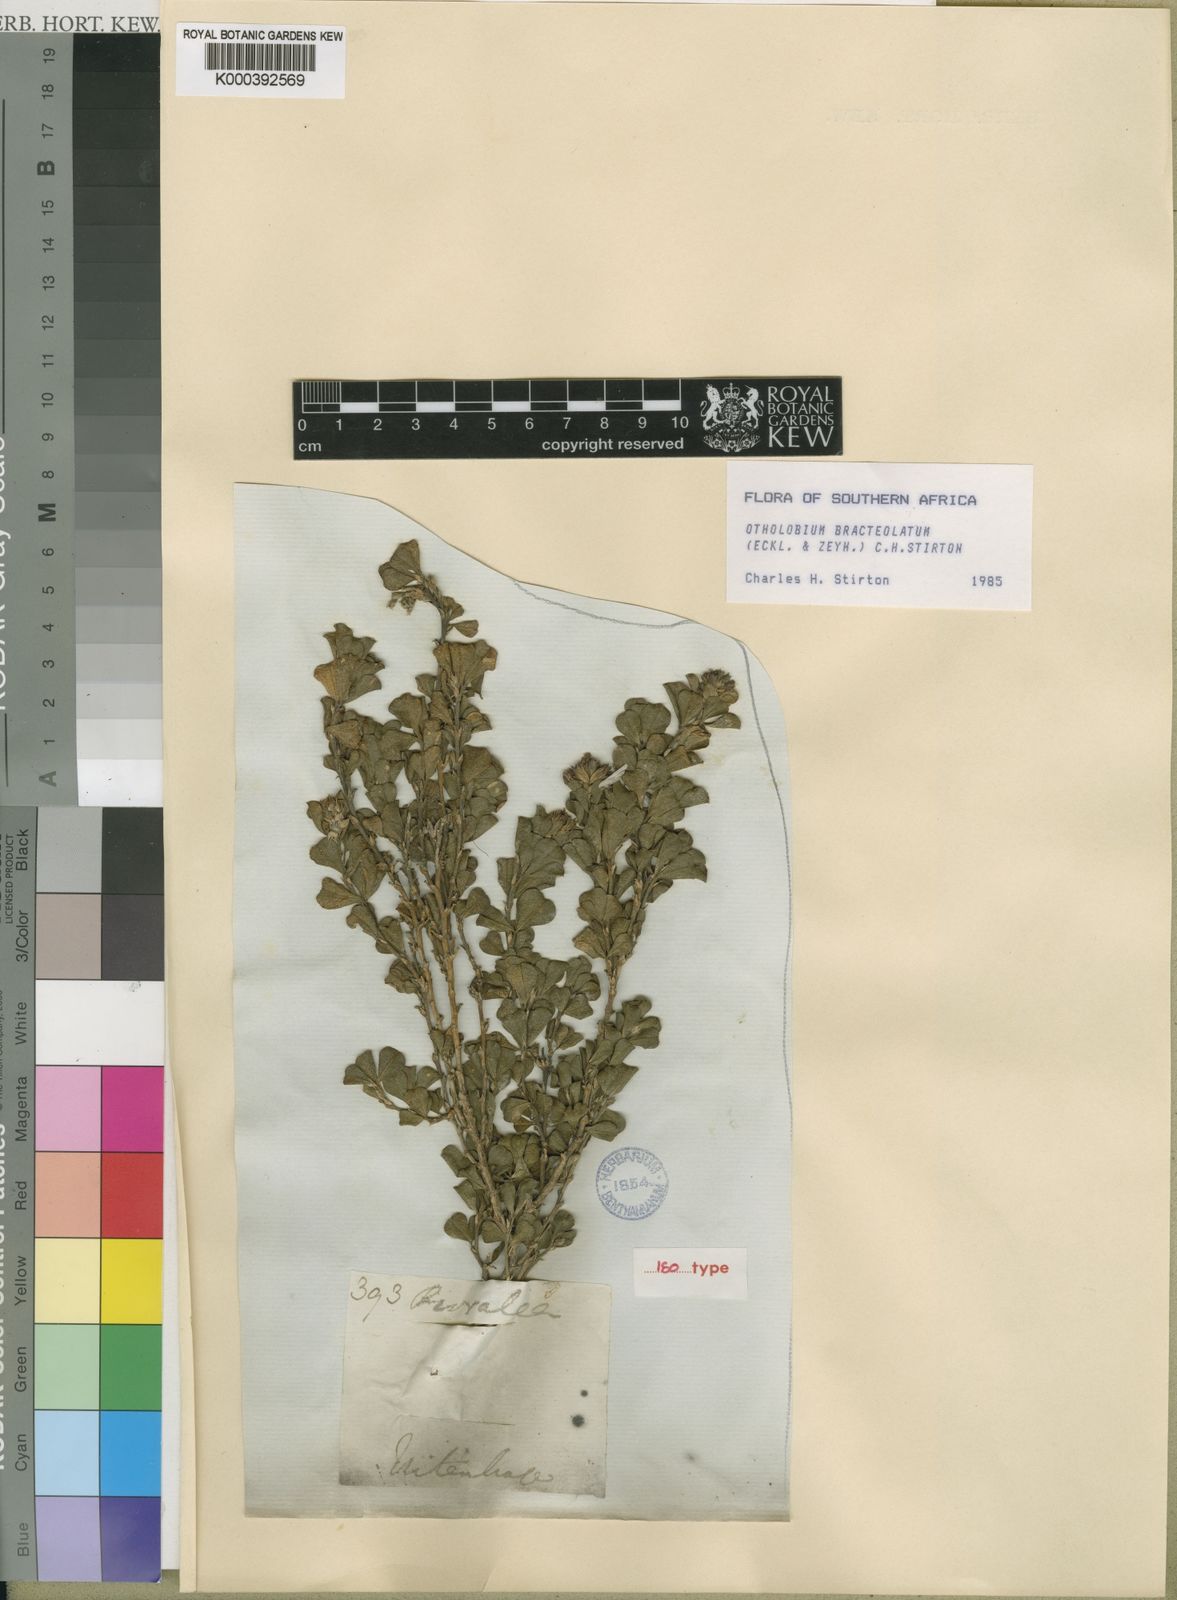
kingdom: Plantae
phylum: Tracheophyta
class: Magnoliopsida
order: Fabales
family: Fabaceae
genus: Psoralea
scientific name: Psoralea bracteolata
